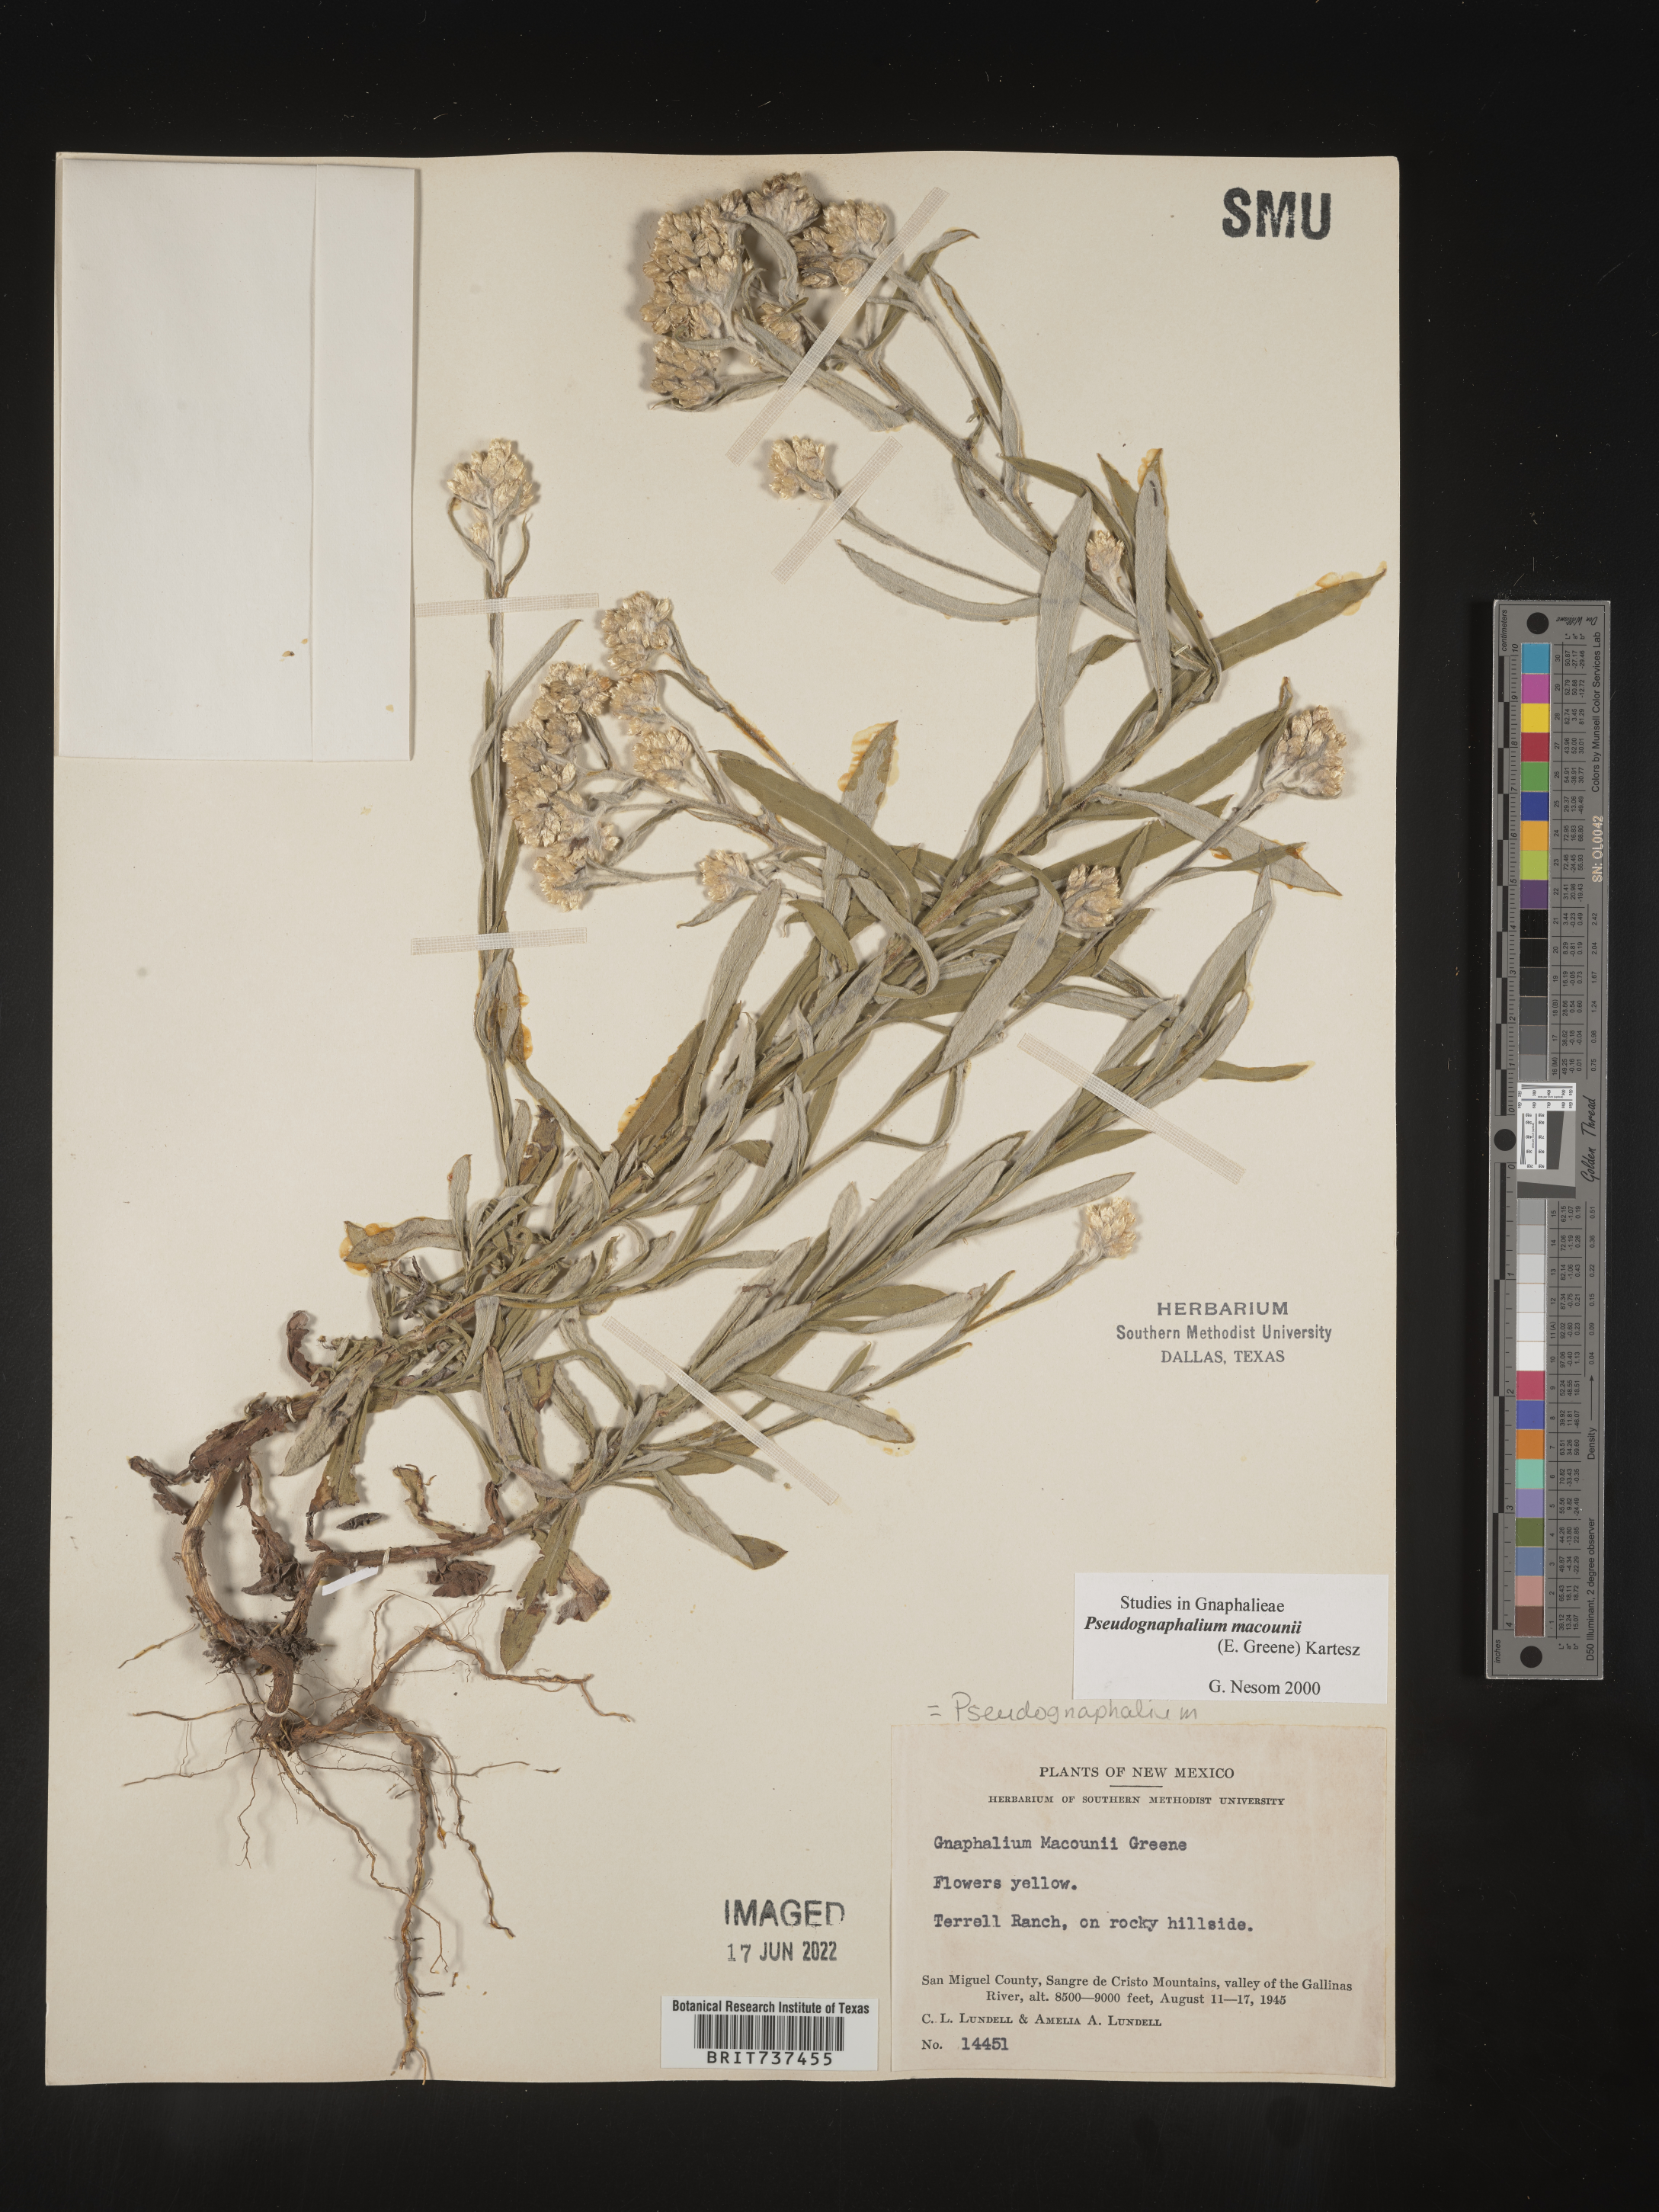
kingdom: Plantae
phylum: Tracheophyta
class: Magnoliopsida
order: Asterales
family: Asteraceae
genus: Pseudognaphalium
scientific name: Pseudognaphalium macounii
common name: Clammy cudweed
